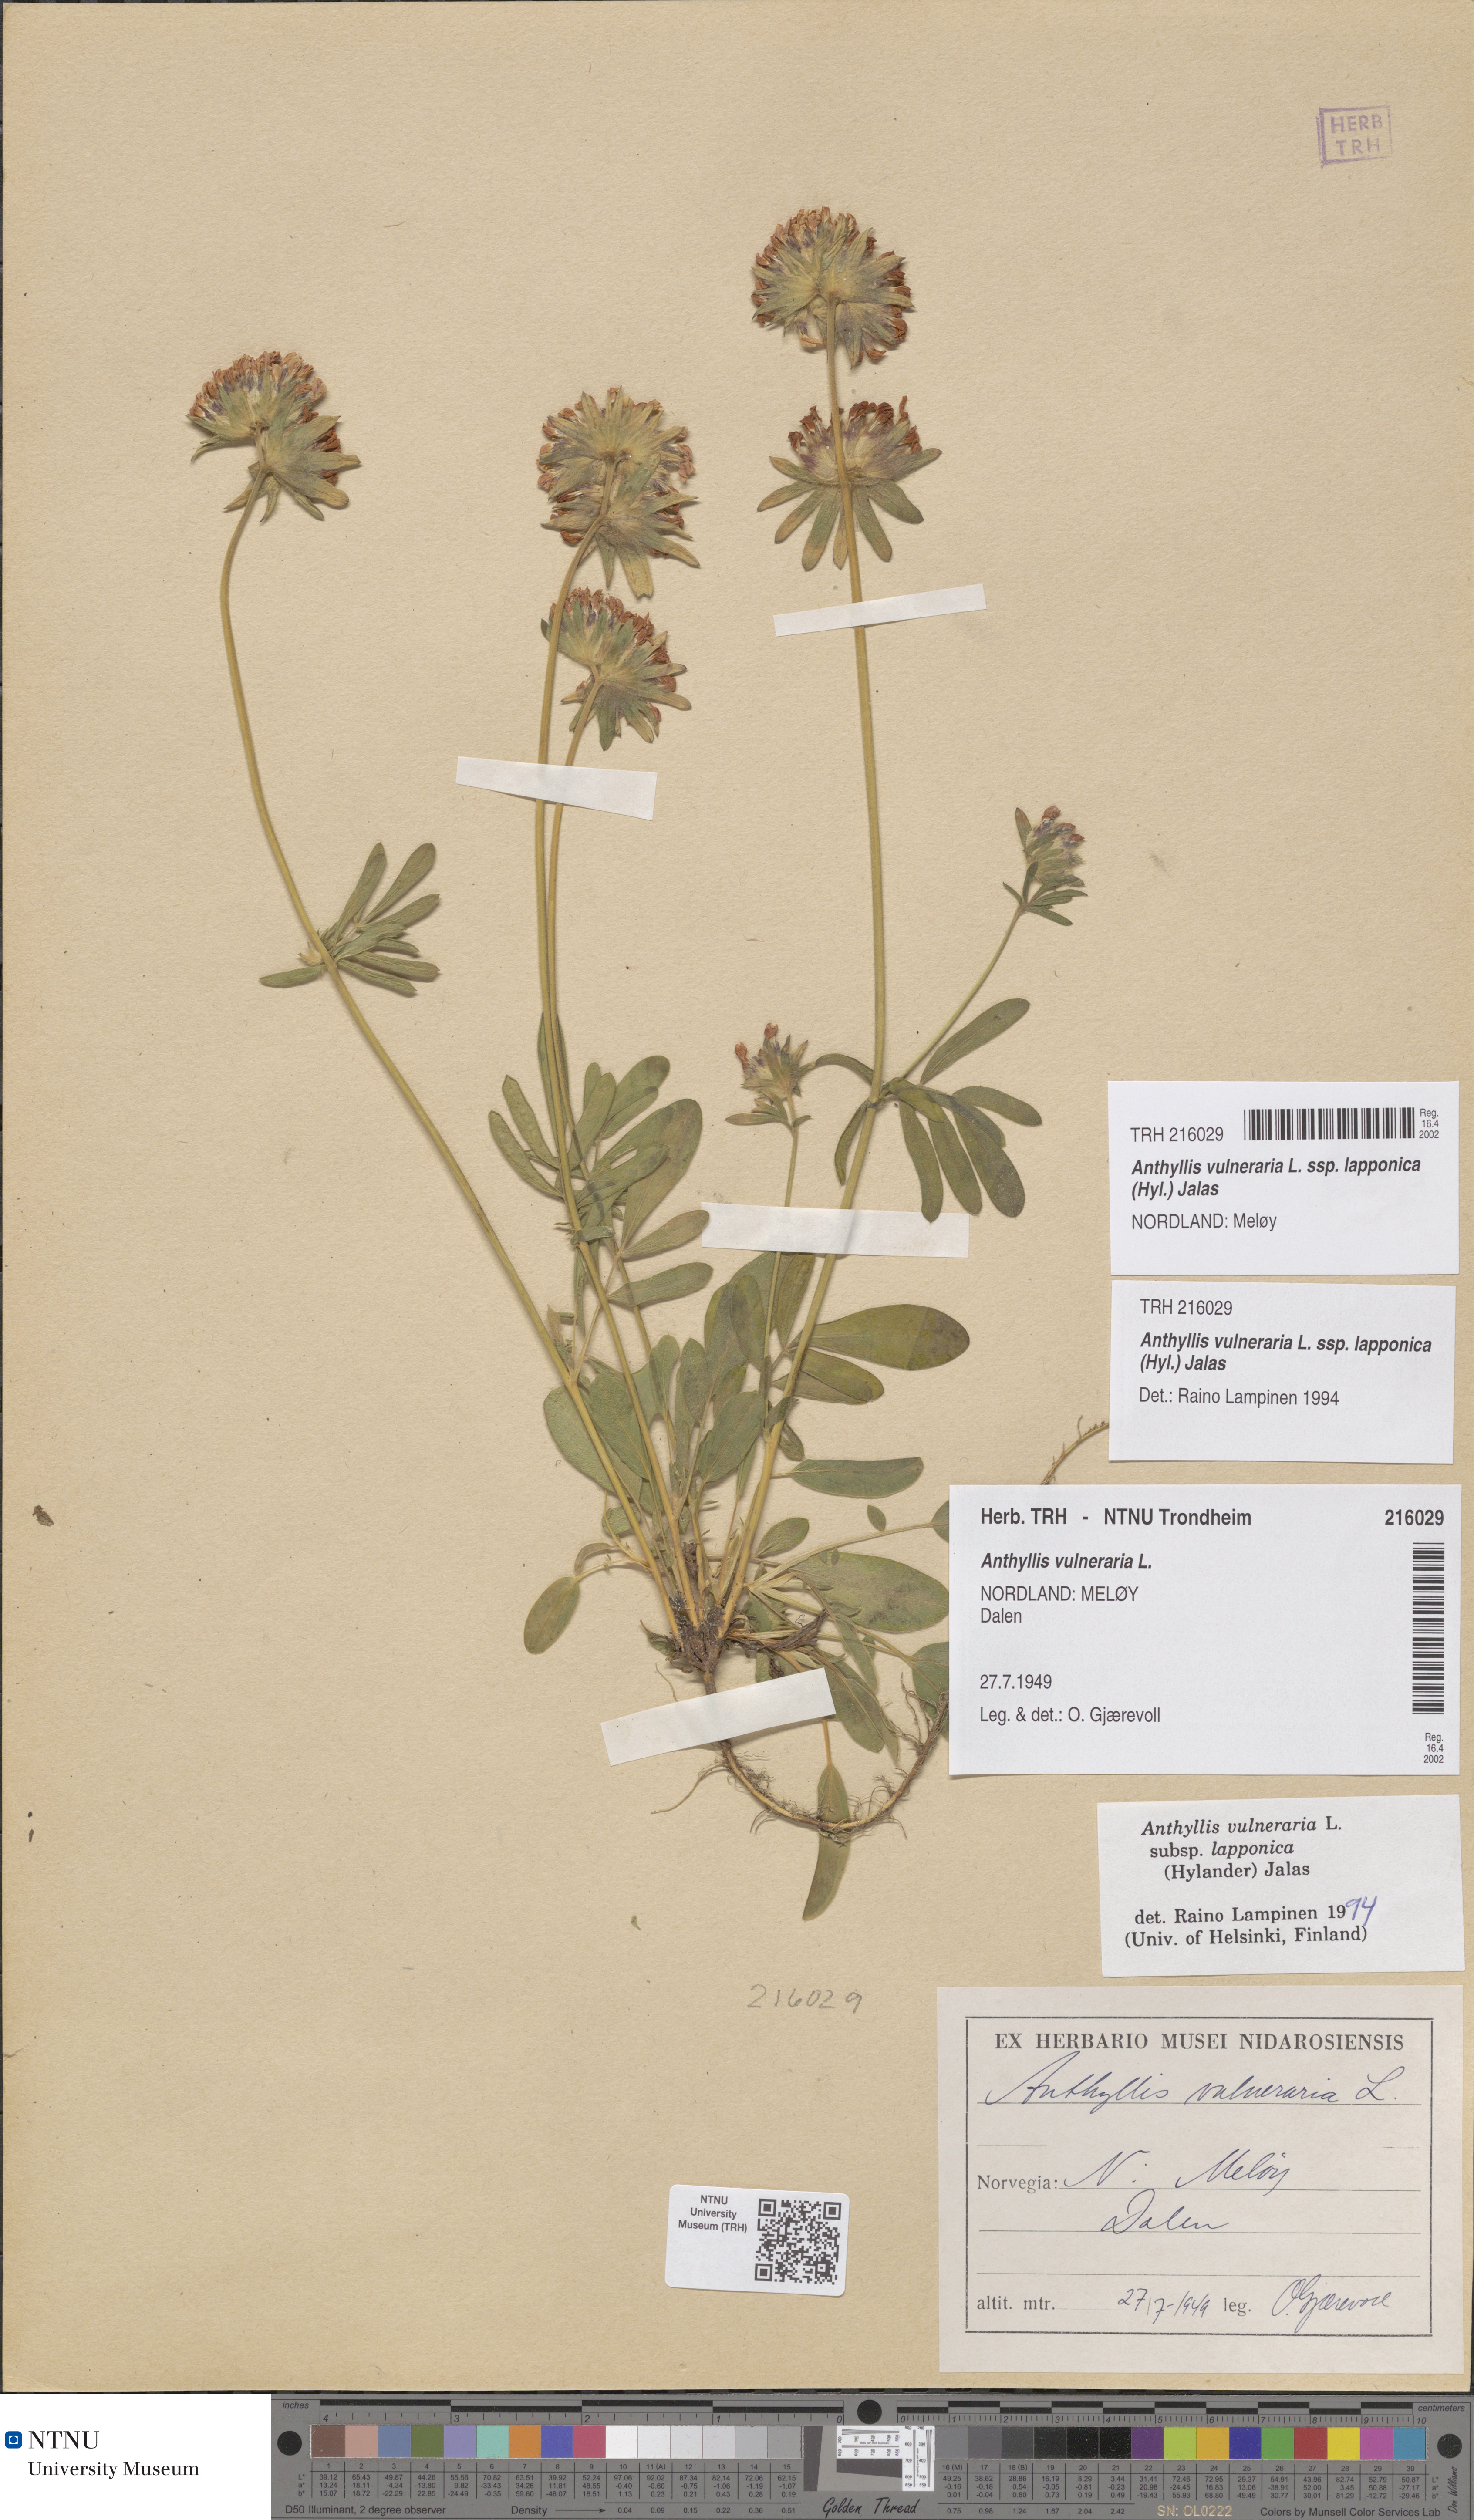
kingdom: Plantae
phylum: Tracheophyta
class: Magnoliopsida
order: Fabales
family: Fabaceae
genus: Anthyllis
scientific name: Anthyllis vulneraria
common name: Kidney vetch
